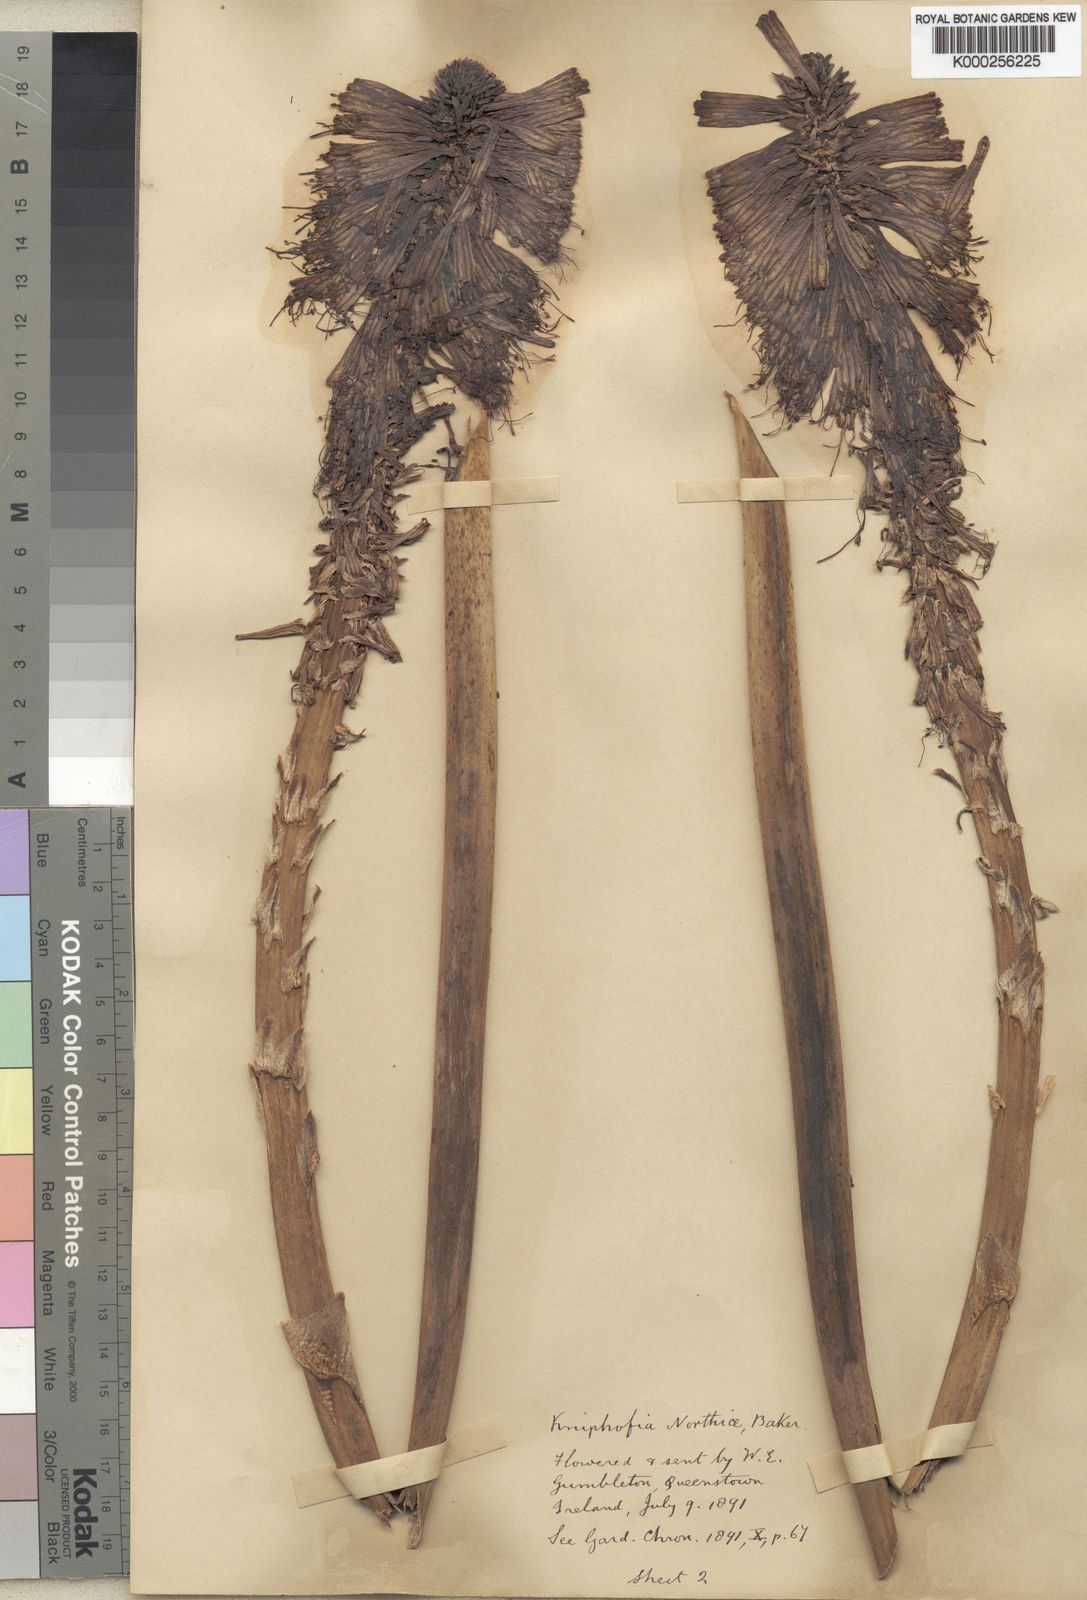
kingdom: Plantae
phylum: Tracheophyta
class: Liliopsida
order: Asparagales
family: Asphodelaceae
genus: Kniphofia
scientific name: Kniphofia northiae
